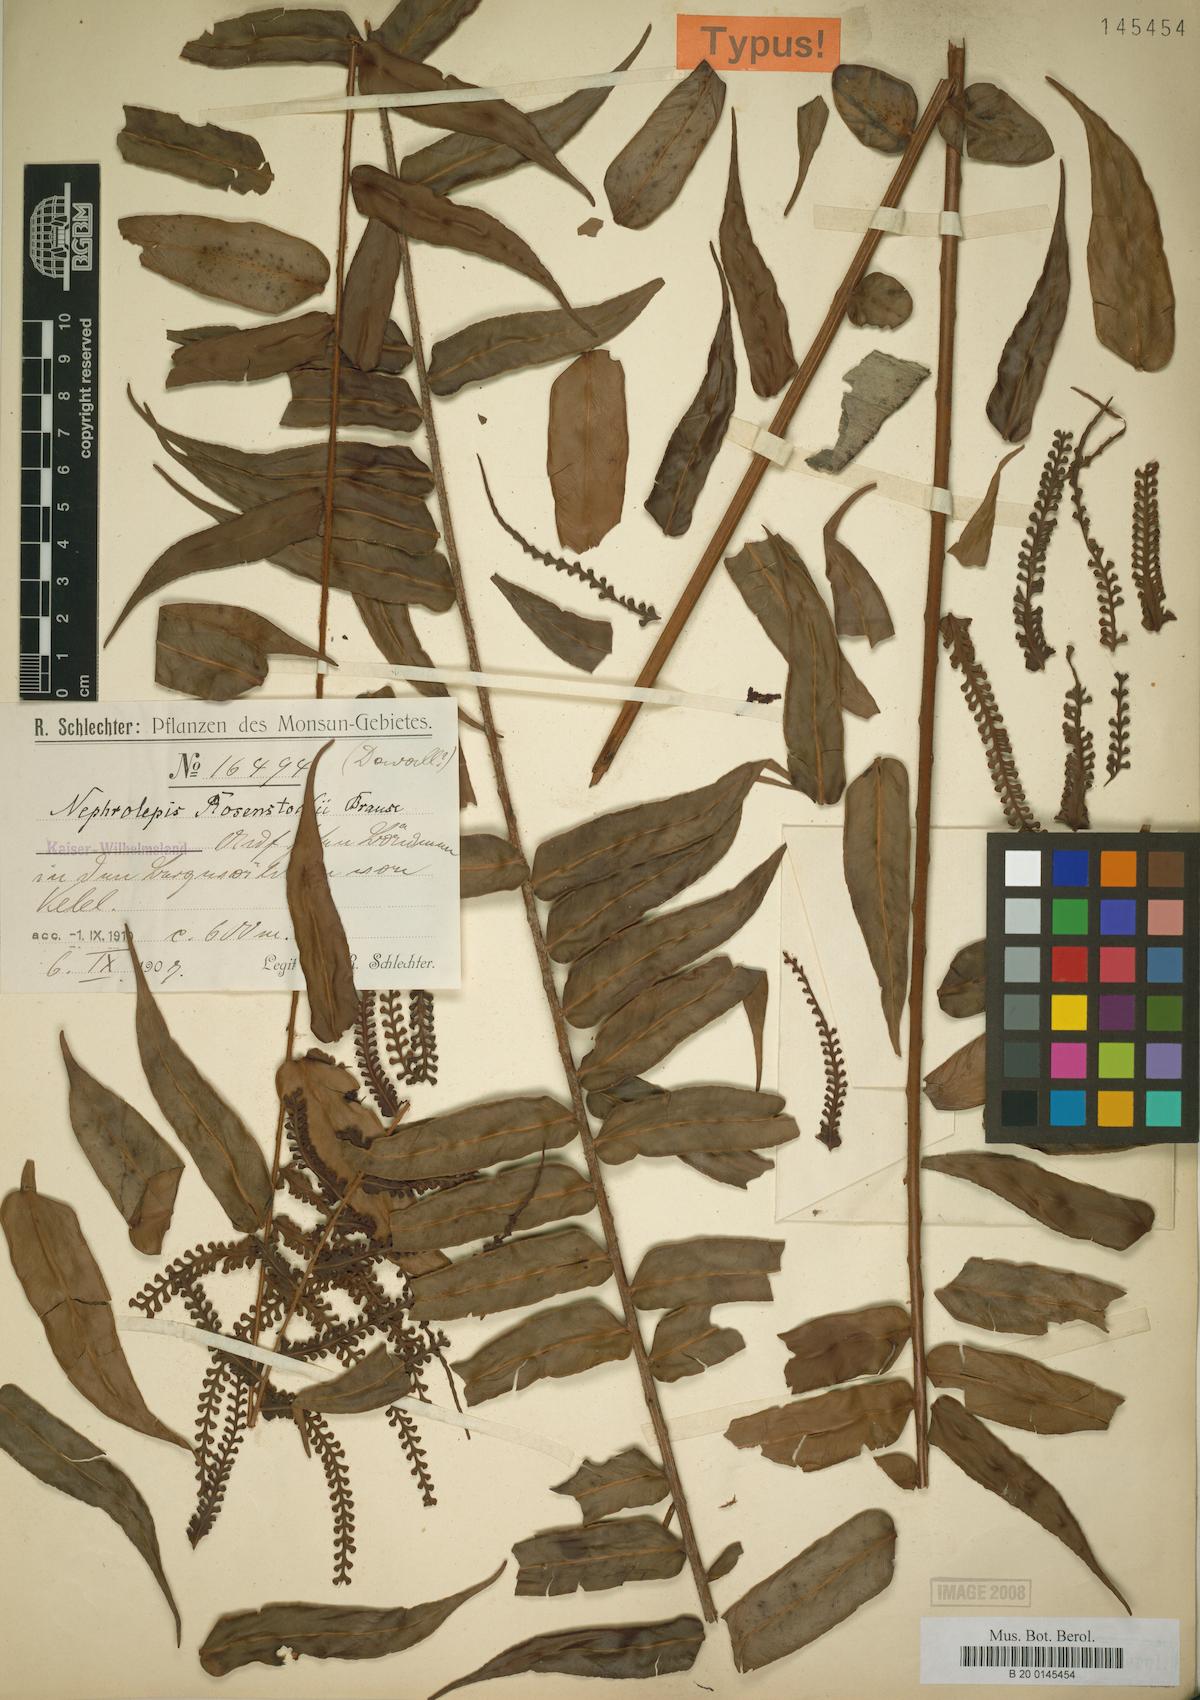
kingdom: Plantae
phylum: Tracheophyta
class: Polypodiopsida
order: Polypodiales
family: Nephrolepidaceae
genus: Nephrolepis
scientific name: Nephrolepis dicksonioides
